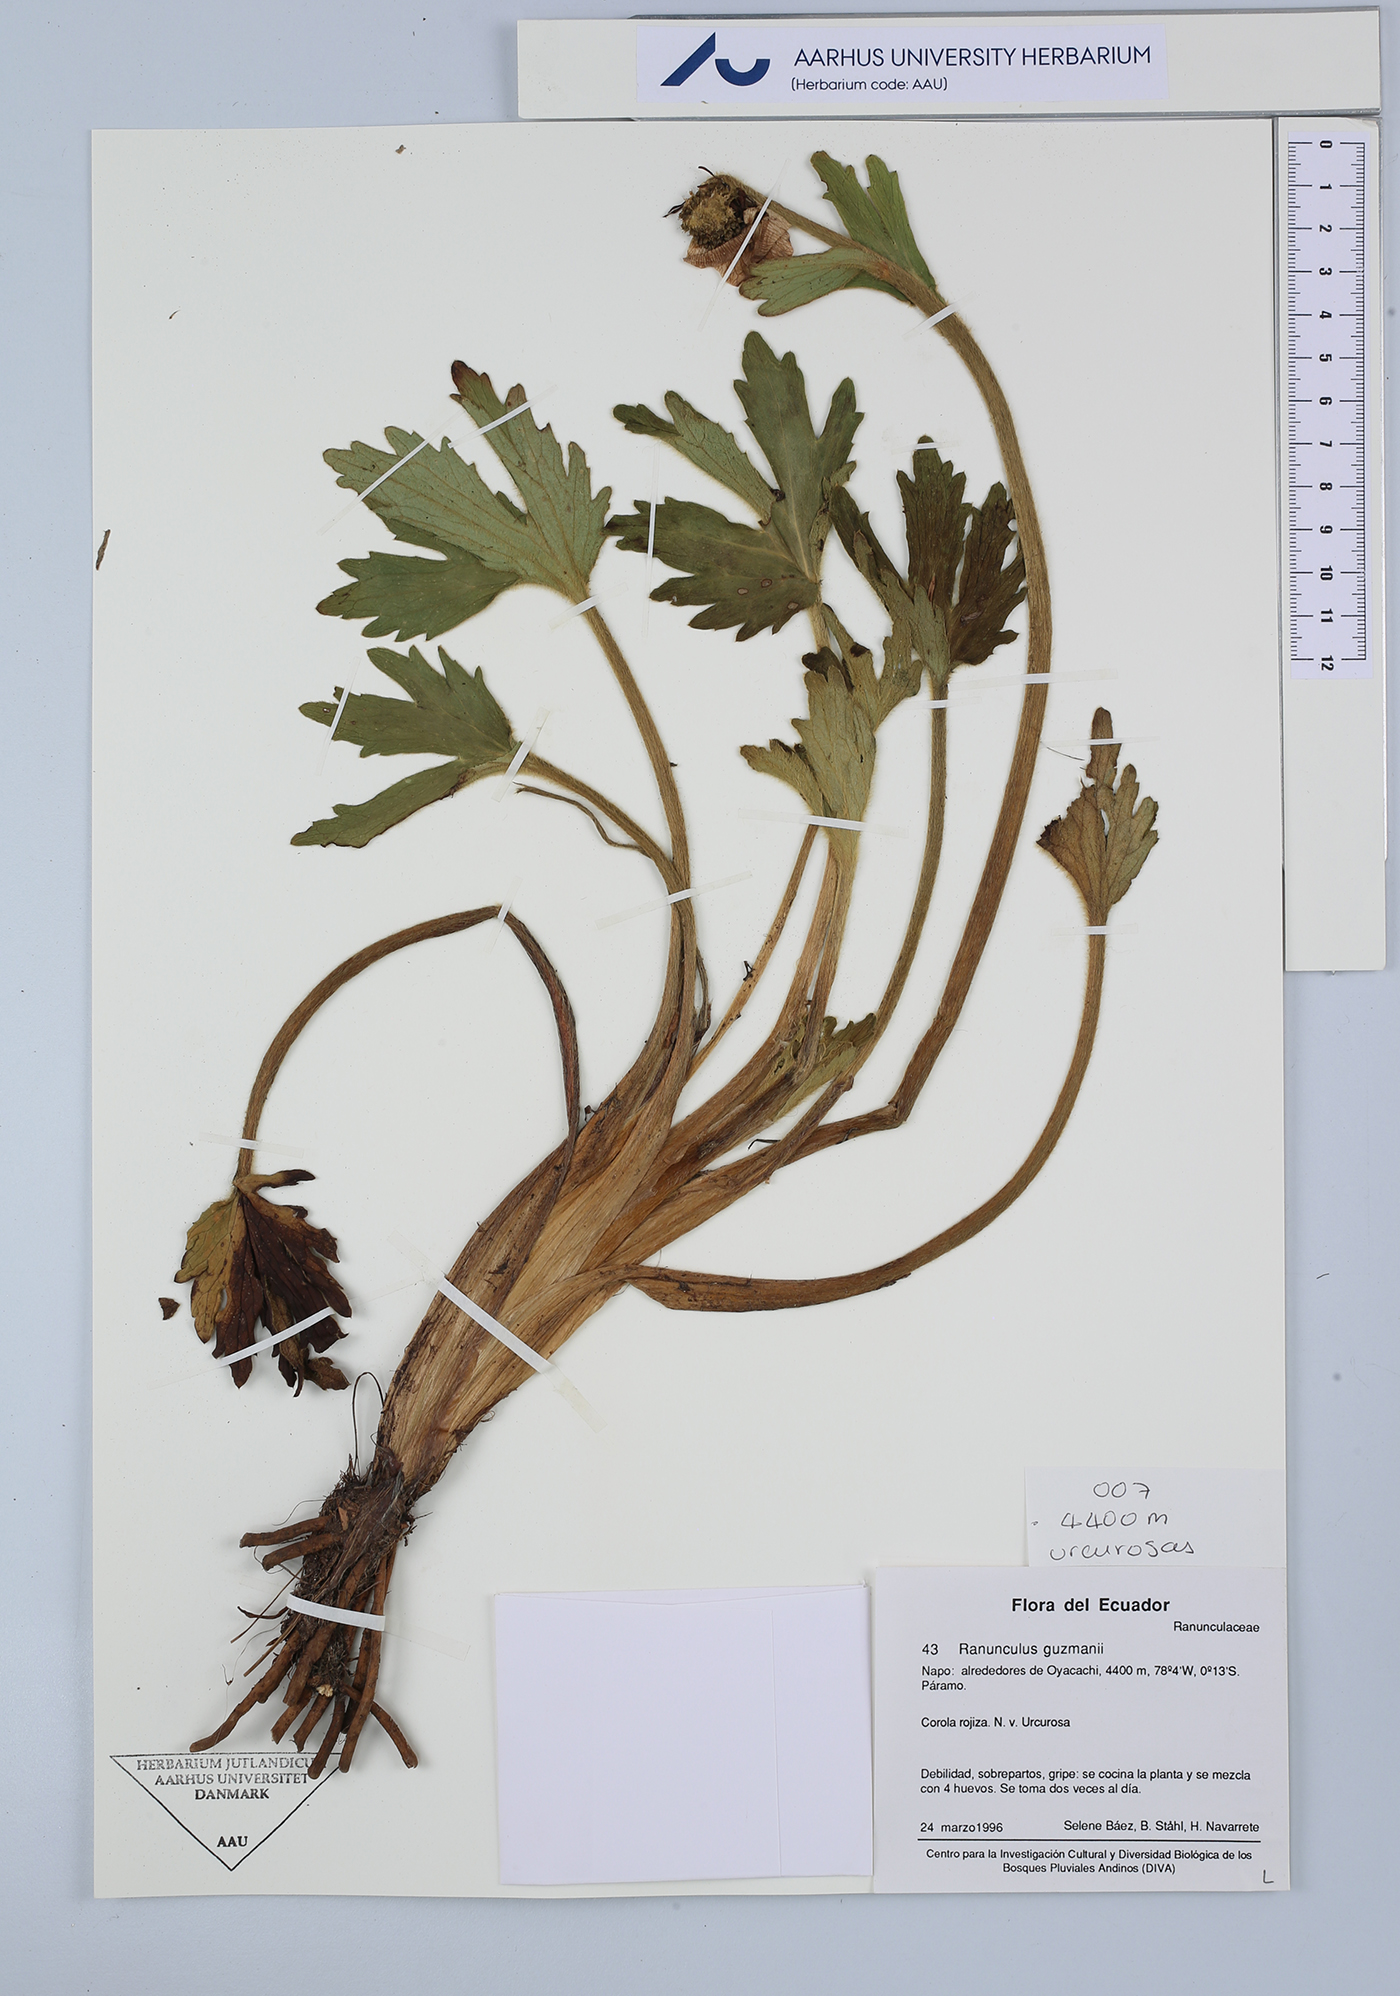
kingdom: Plantae
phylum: Tracheophyta
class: Magnoliopsida
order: Ranunculales
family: Ranunculaceae
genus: Krapfia
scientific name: Krapfia ranunculina
